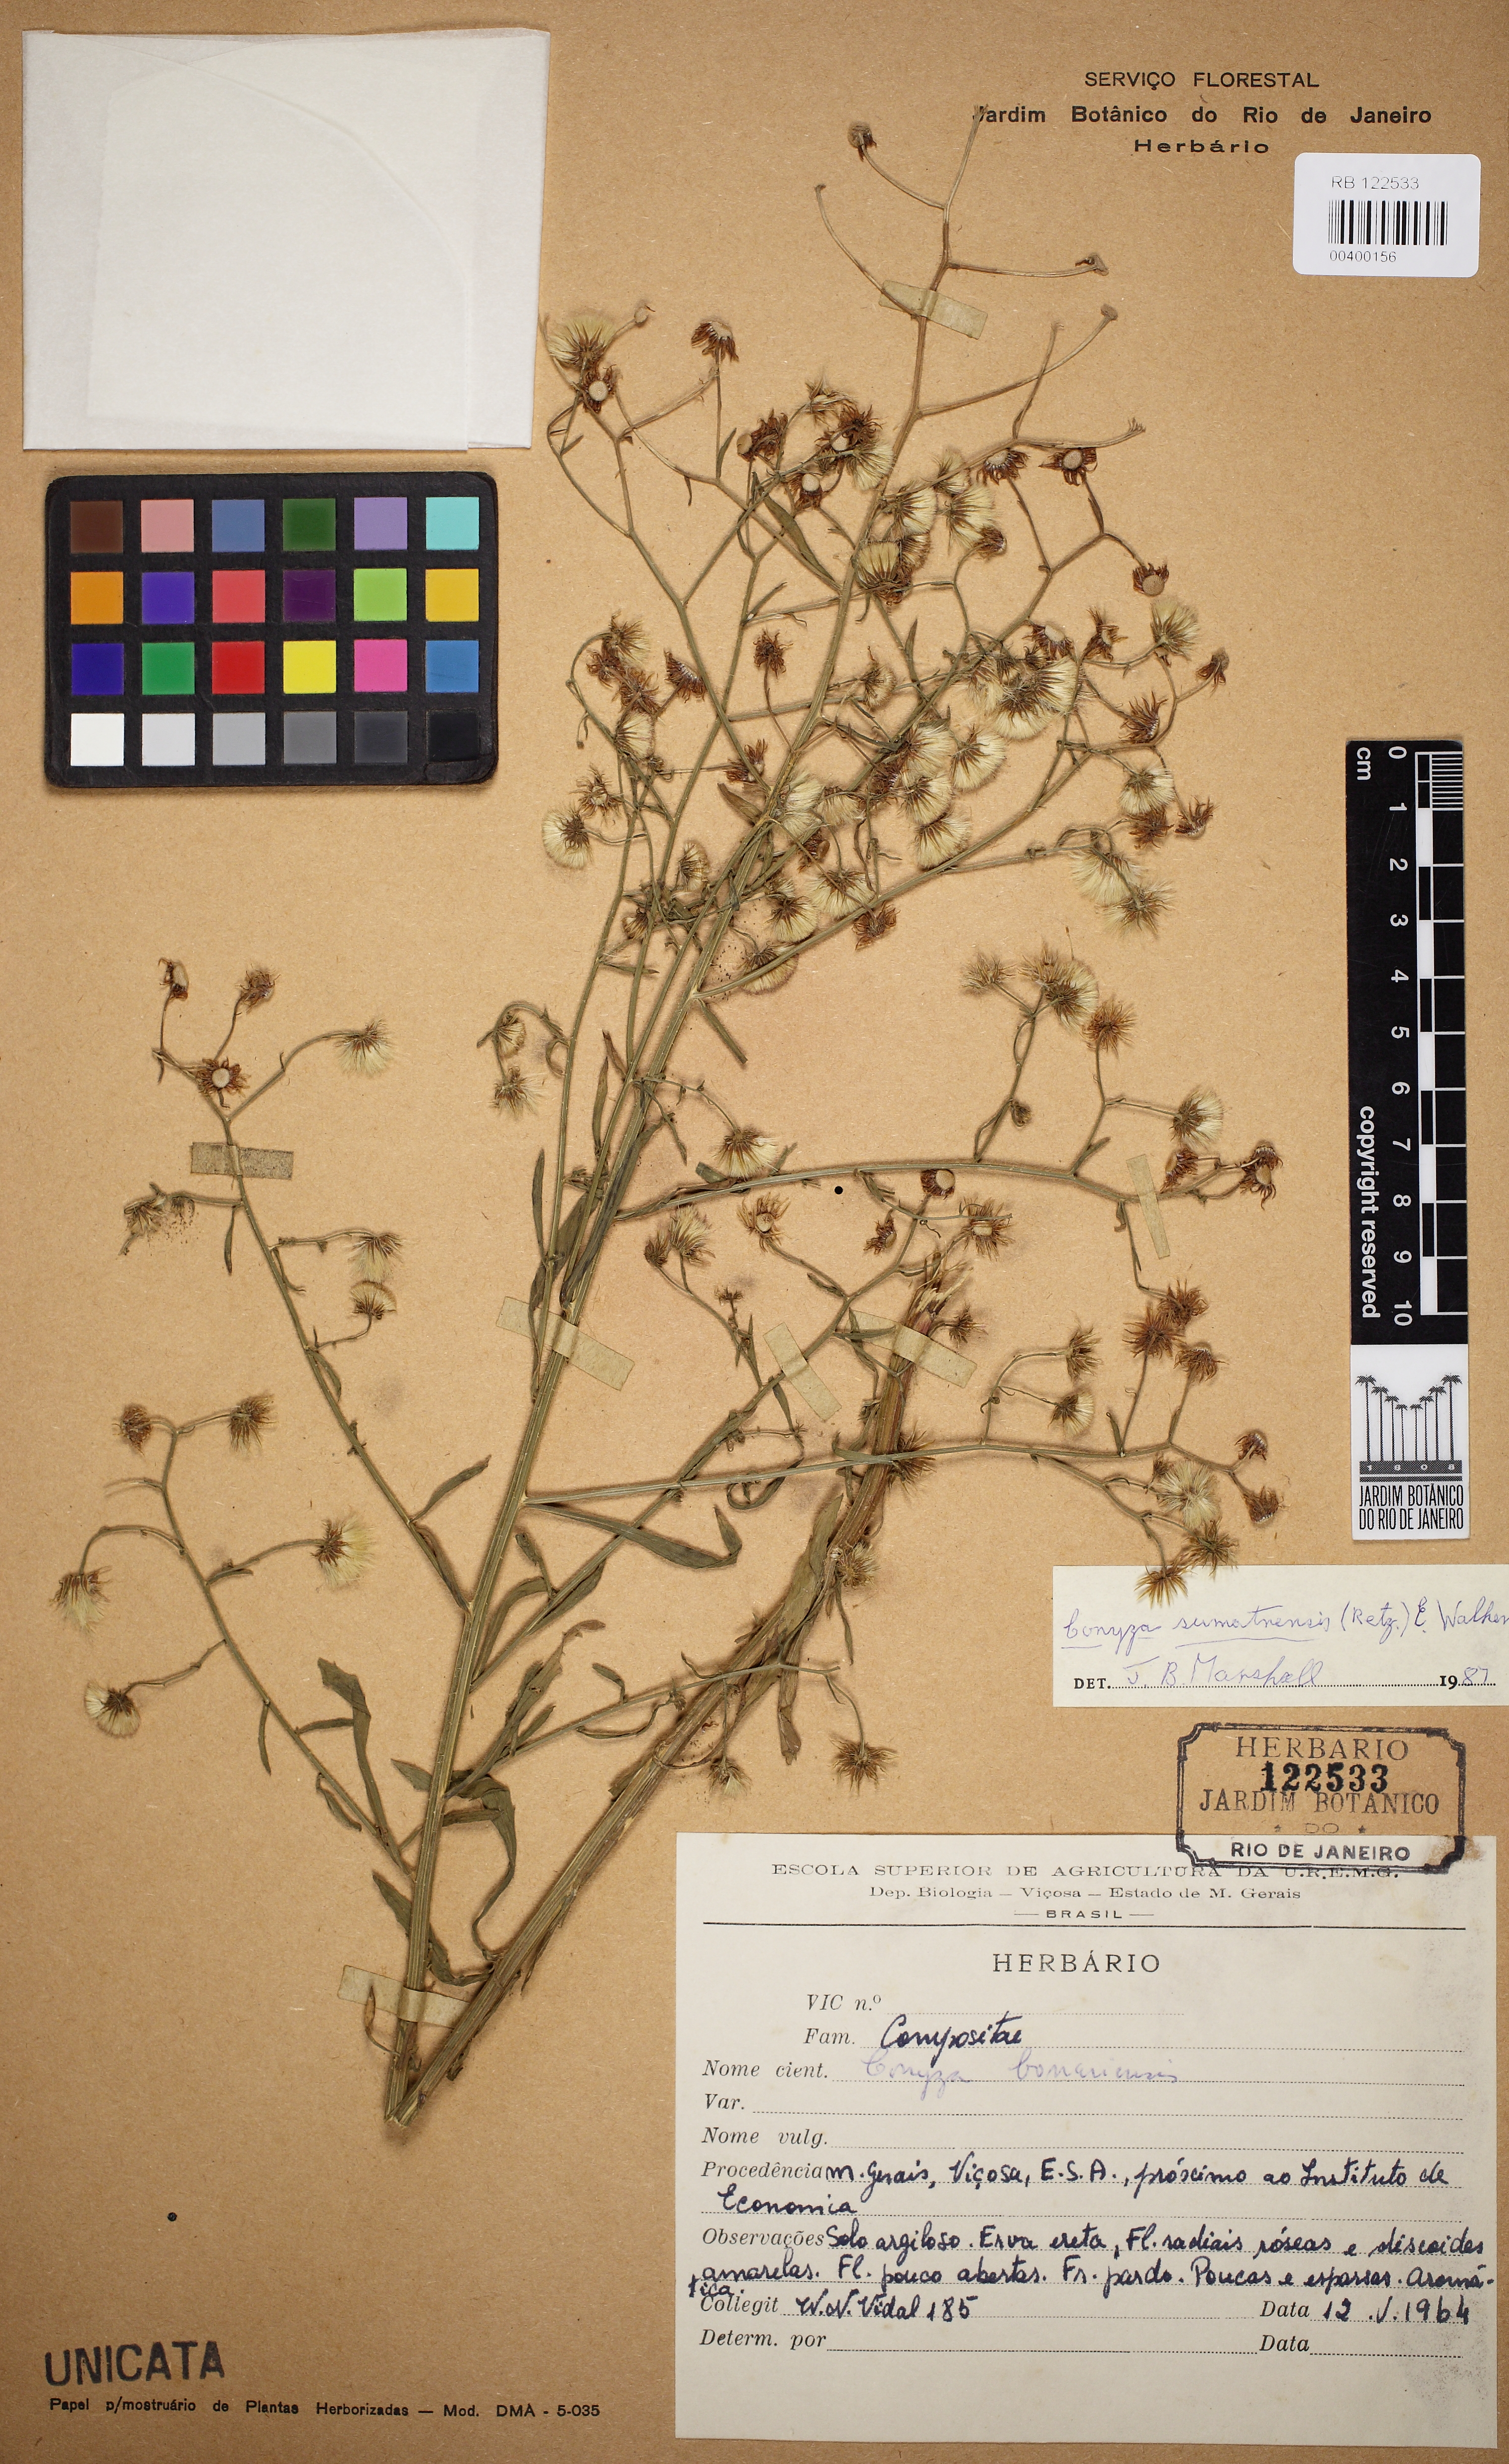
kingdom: Plantae
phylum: Tracheophyta
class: Magnoliopsida
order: Asterales
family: Asteraceae
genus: Erigeron
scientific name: Erigeron sumatrensis
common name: Daisy
